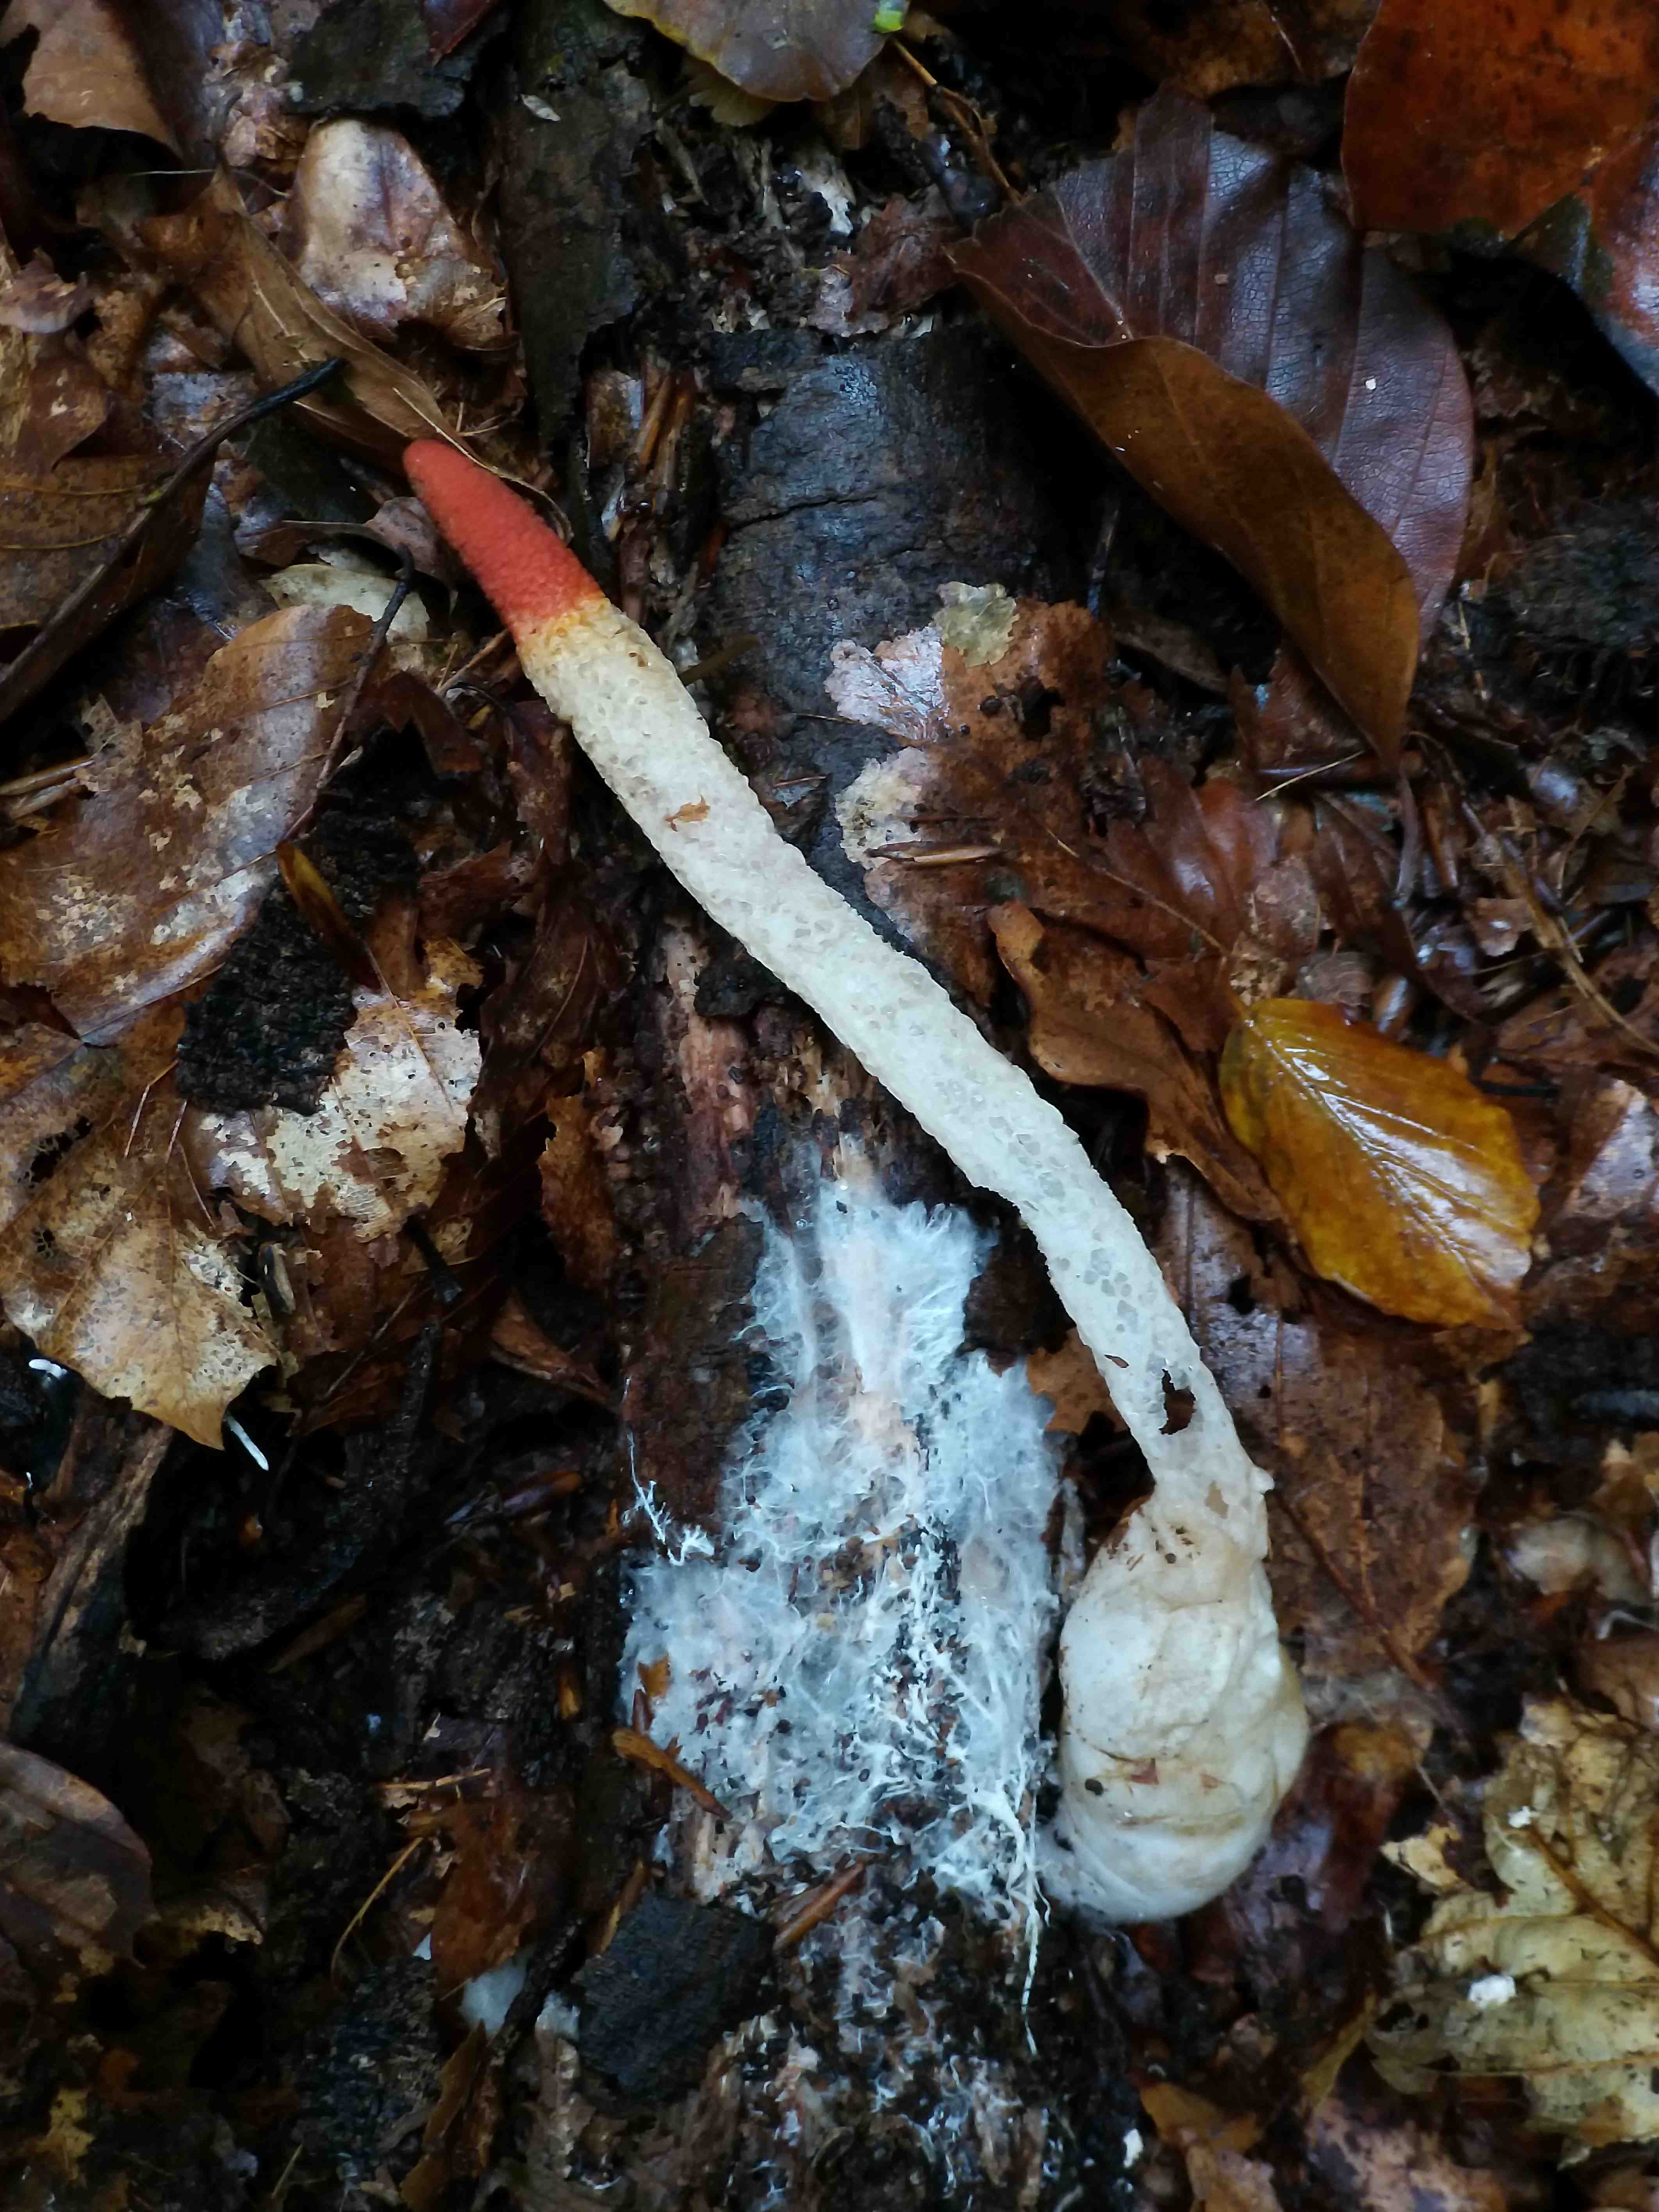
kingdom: Fungi
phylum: Basidiomycota
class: Agaricomycetes
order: Phallales
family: Phallaceae
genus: Mutinus
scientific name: Mutinus caninus
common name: hunde-stinksvamp
